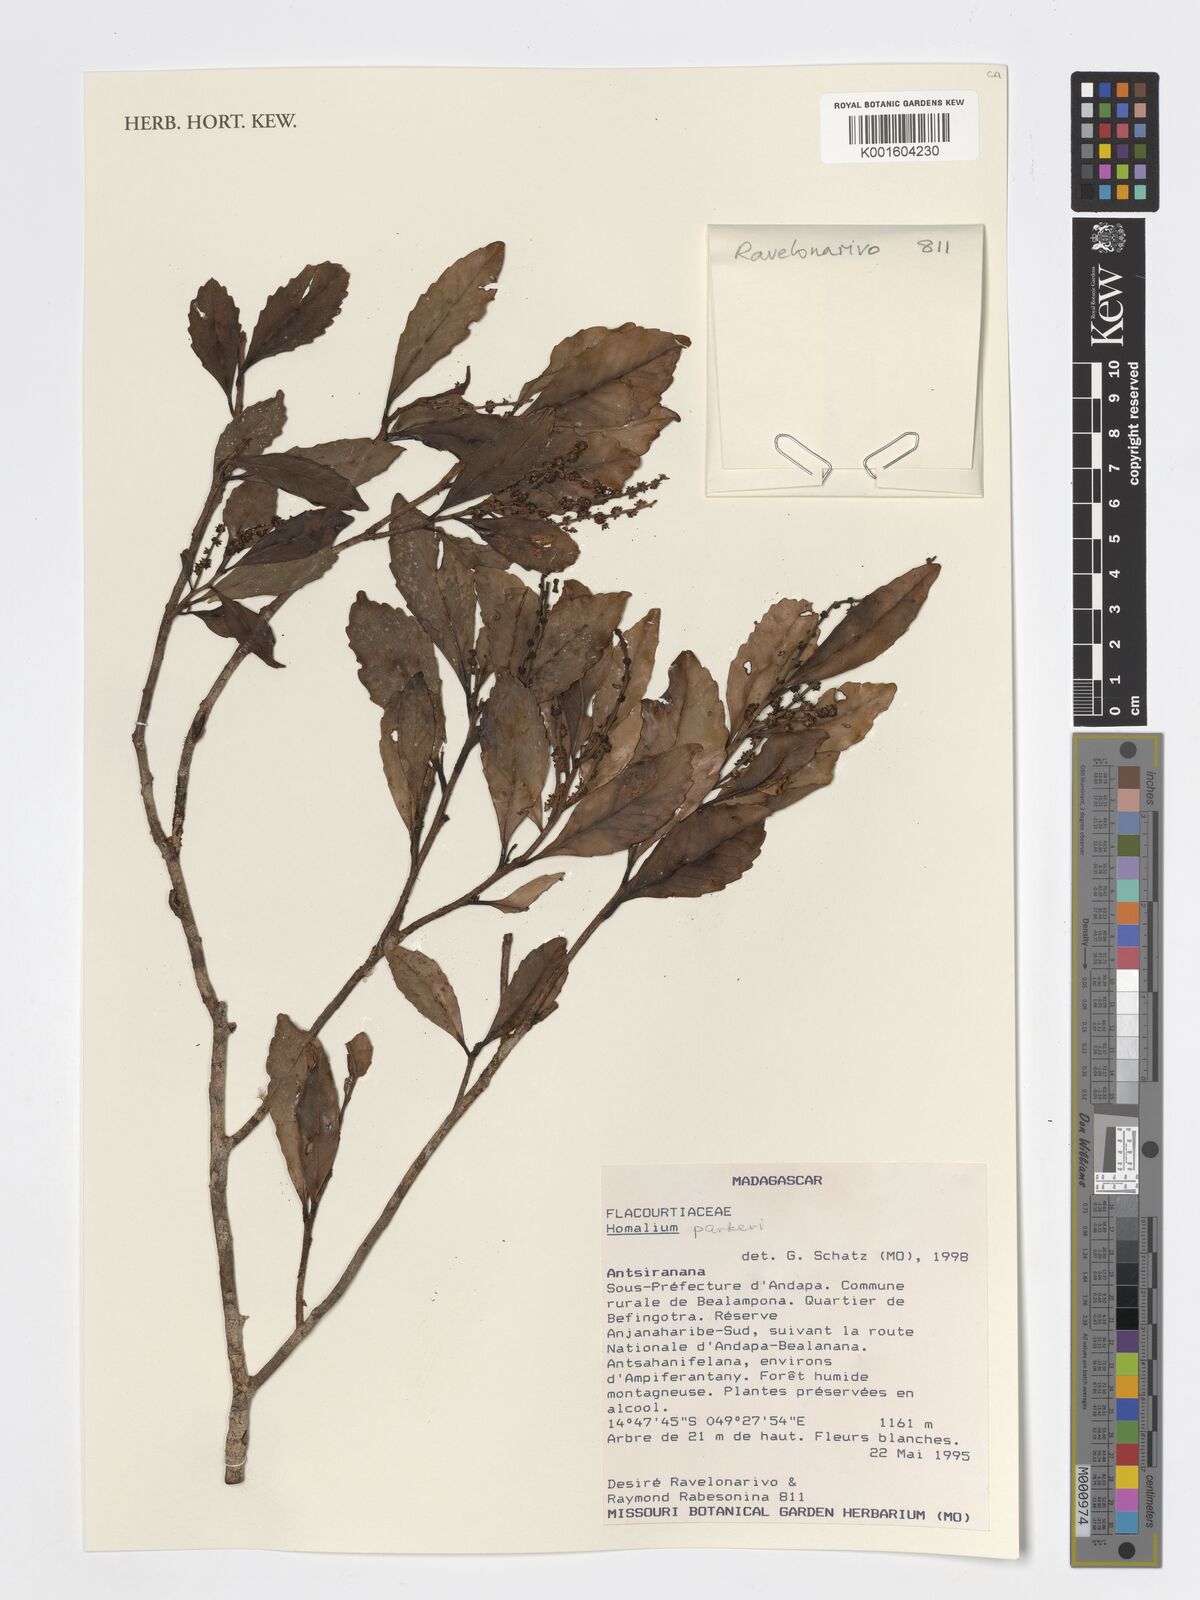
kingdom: Plantae
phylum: Tracheophyta
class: Magnoliopsida
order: Malpighiales
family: Salicaceae
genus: Homalium
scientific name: Homalium parkeri
